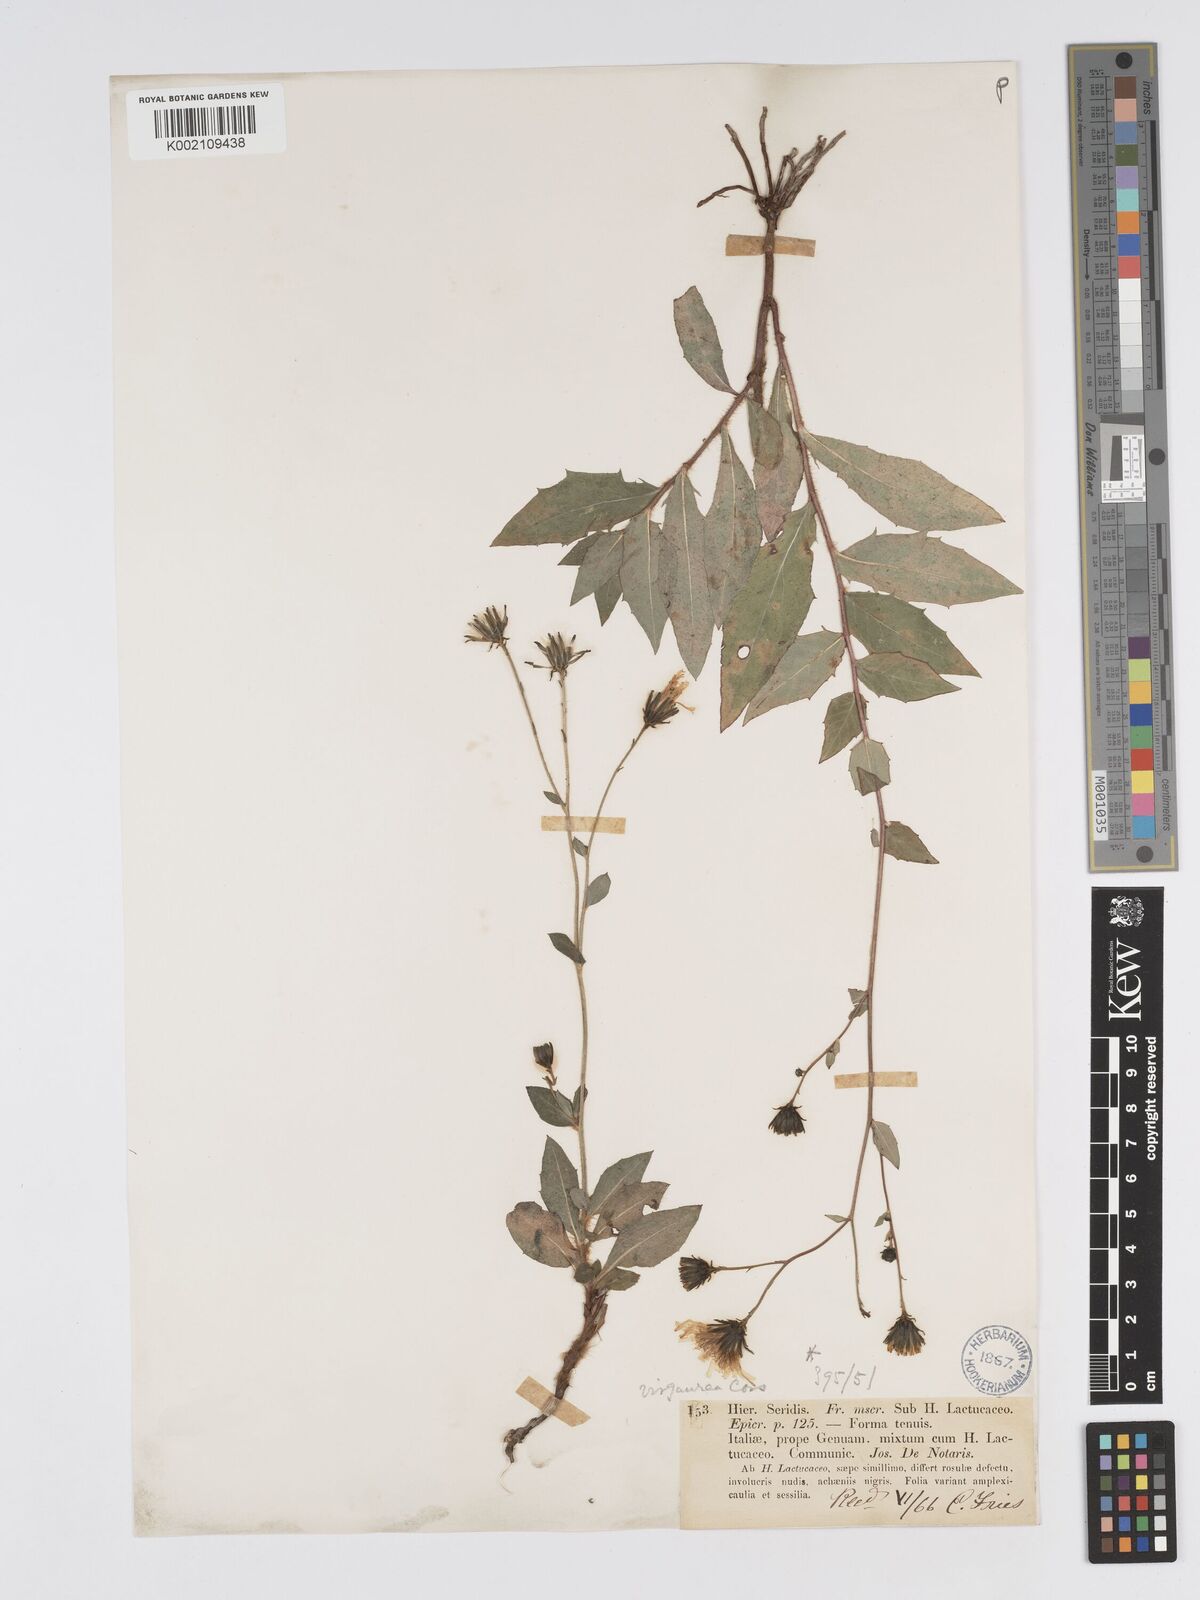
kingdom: Plantae
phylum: Tracheophyta
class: Magnoliopsida
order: Asterales
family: Asteraceae
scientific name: Asteraceae
